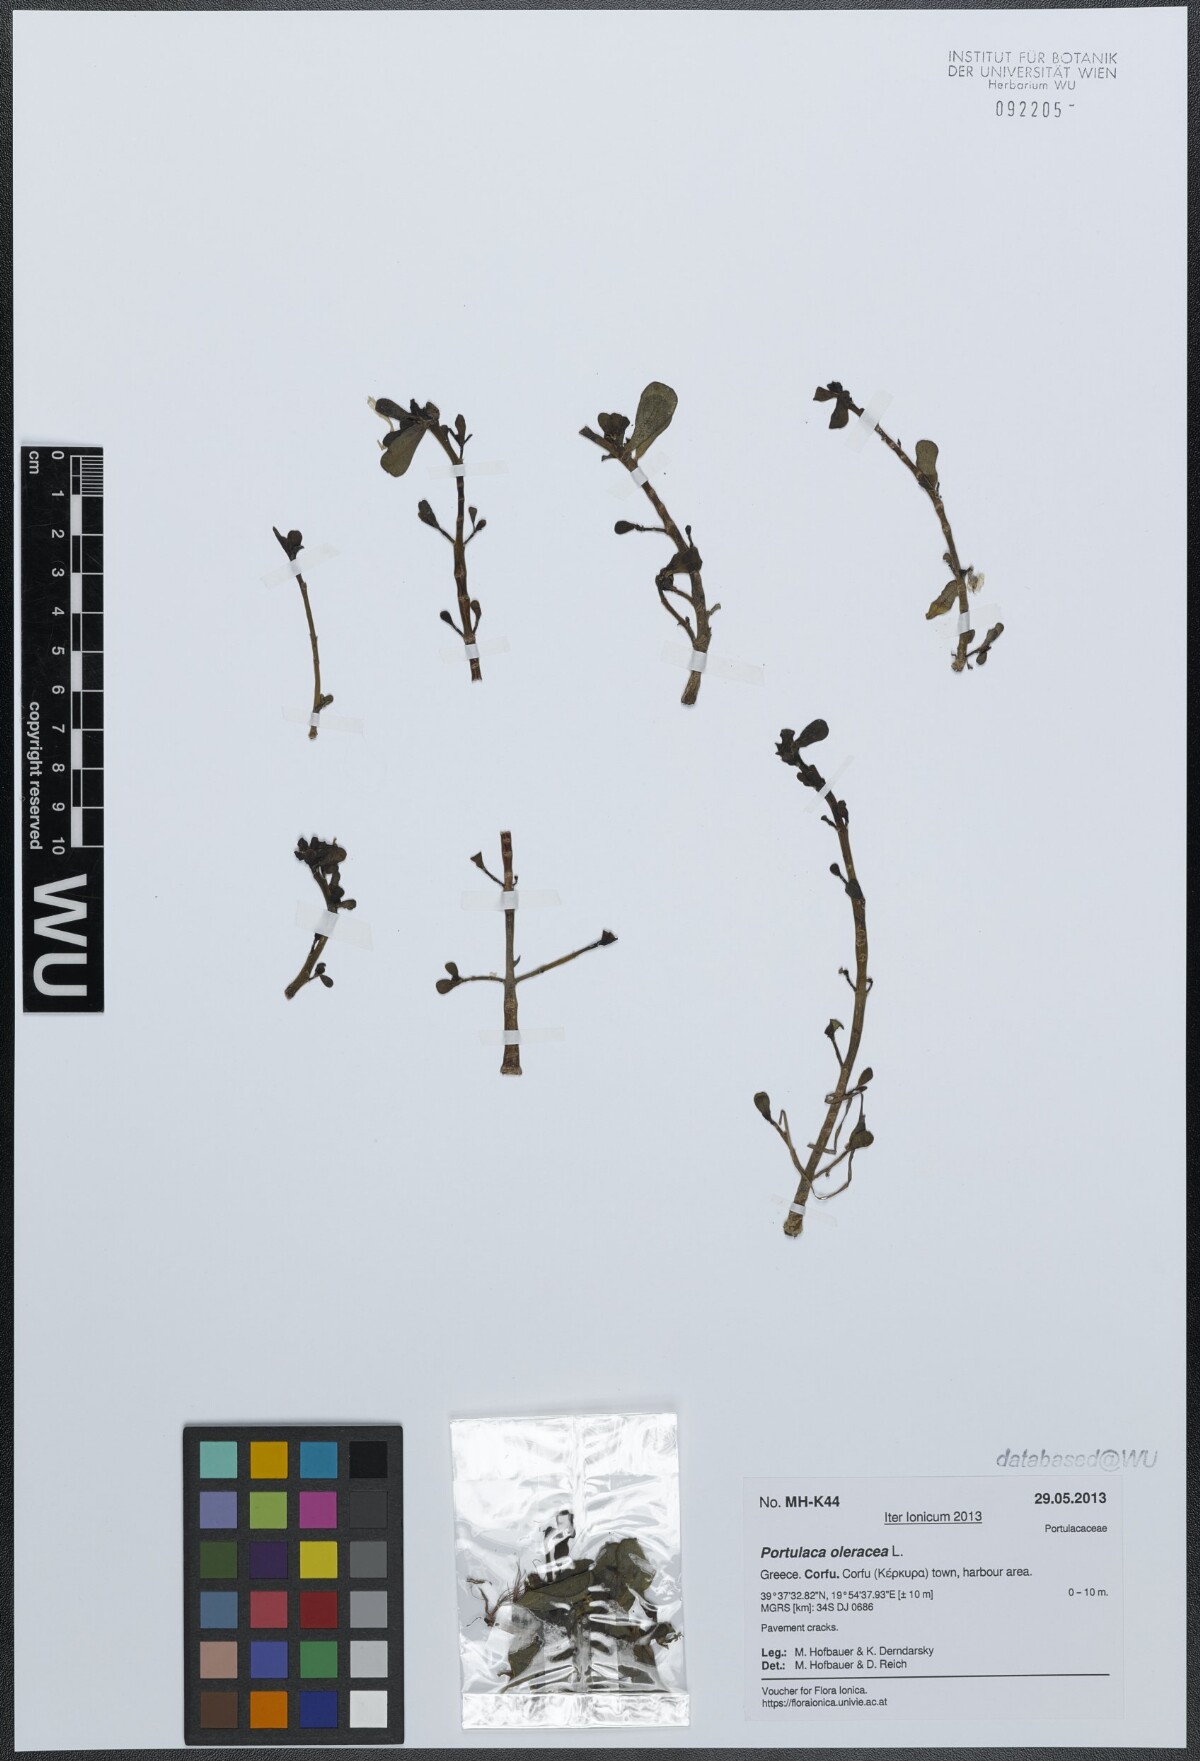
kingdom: Plantae
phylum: Tracheophyta
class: Magnoliopsida
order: Caryophyllales
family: Portulacaceae
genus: Portulaca
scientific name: Portulaca oleracea
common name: Common purslane
